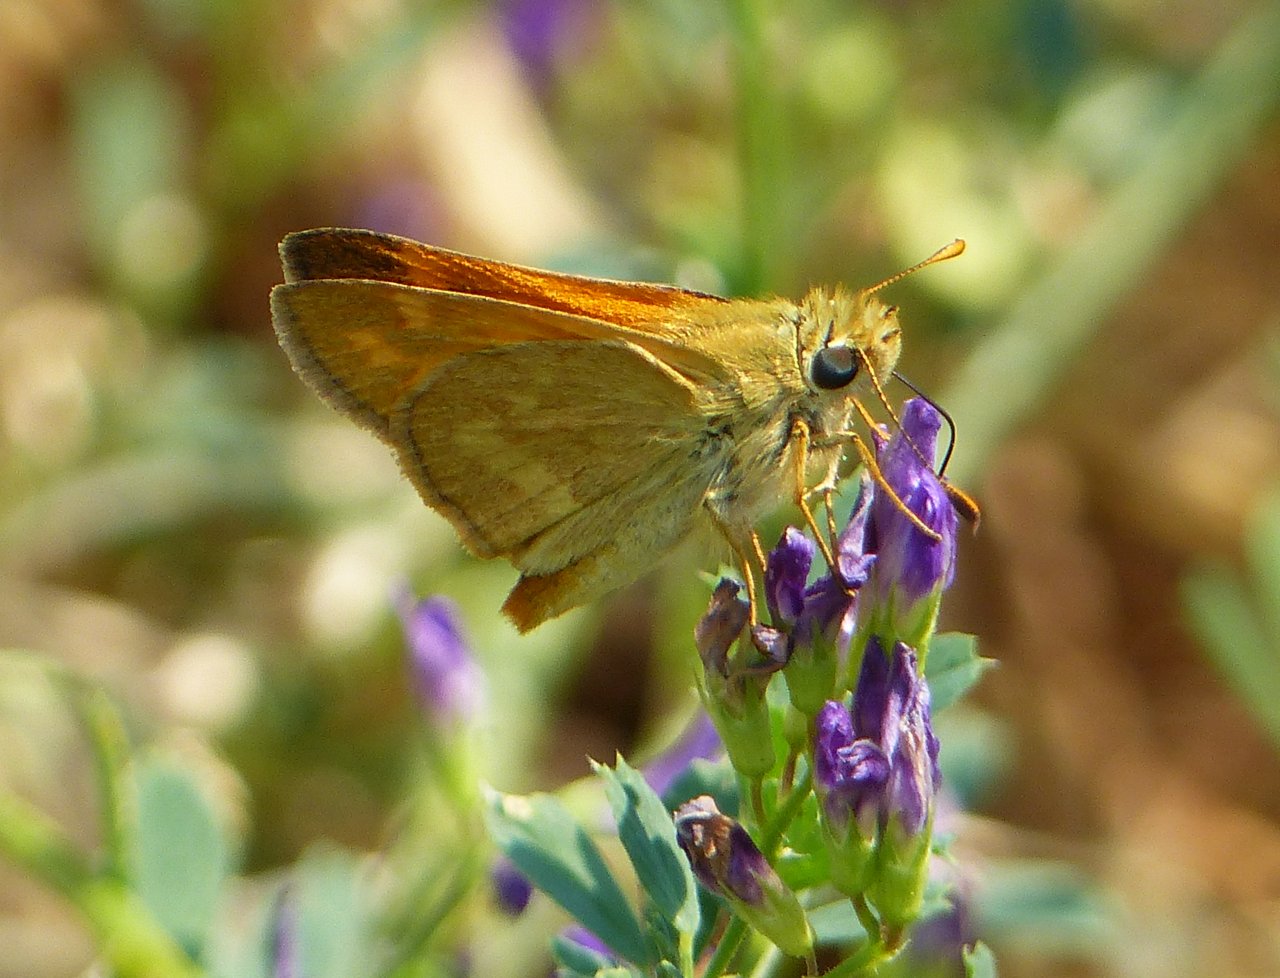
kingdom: Animalia
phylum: Arthropoda
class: Insecta
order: Lepidoptera
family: Hesperiidae
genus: Ochlodes
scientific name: Ochlodes sylvanoides
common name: Woodland Skipper
